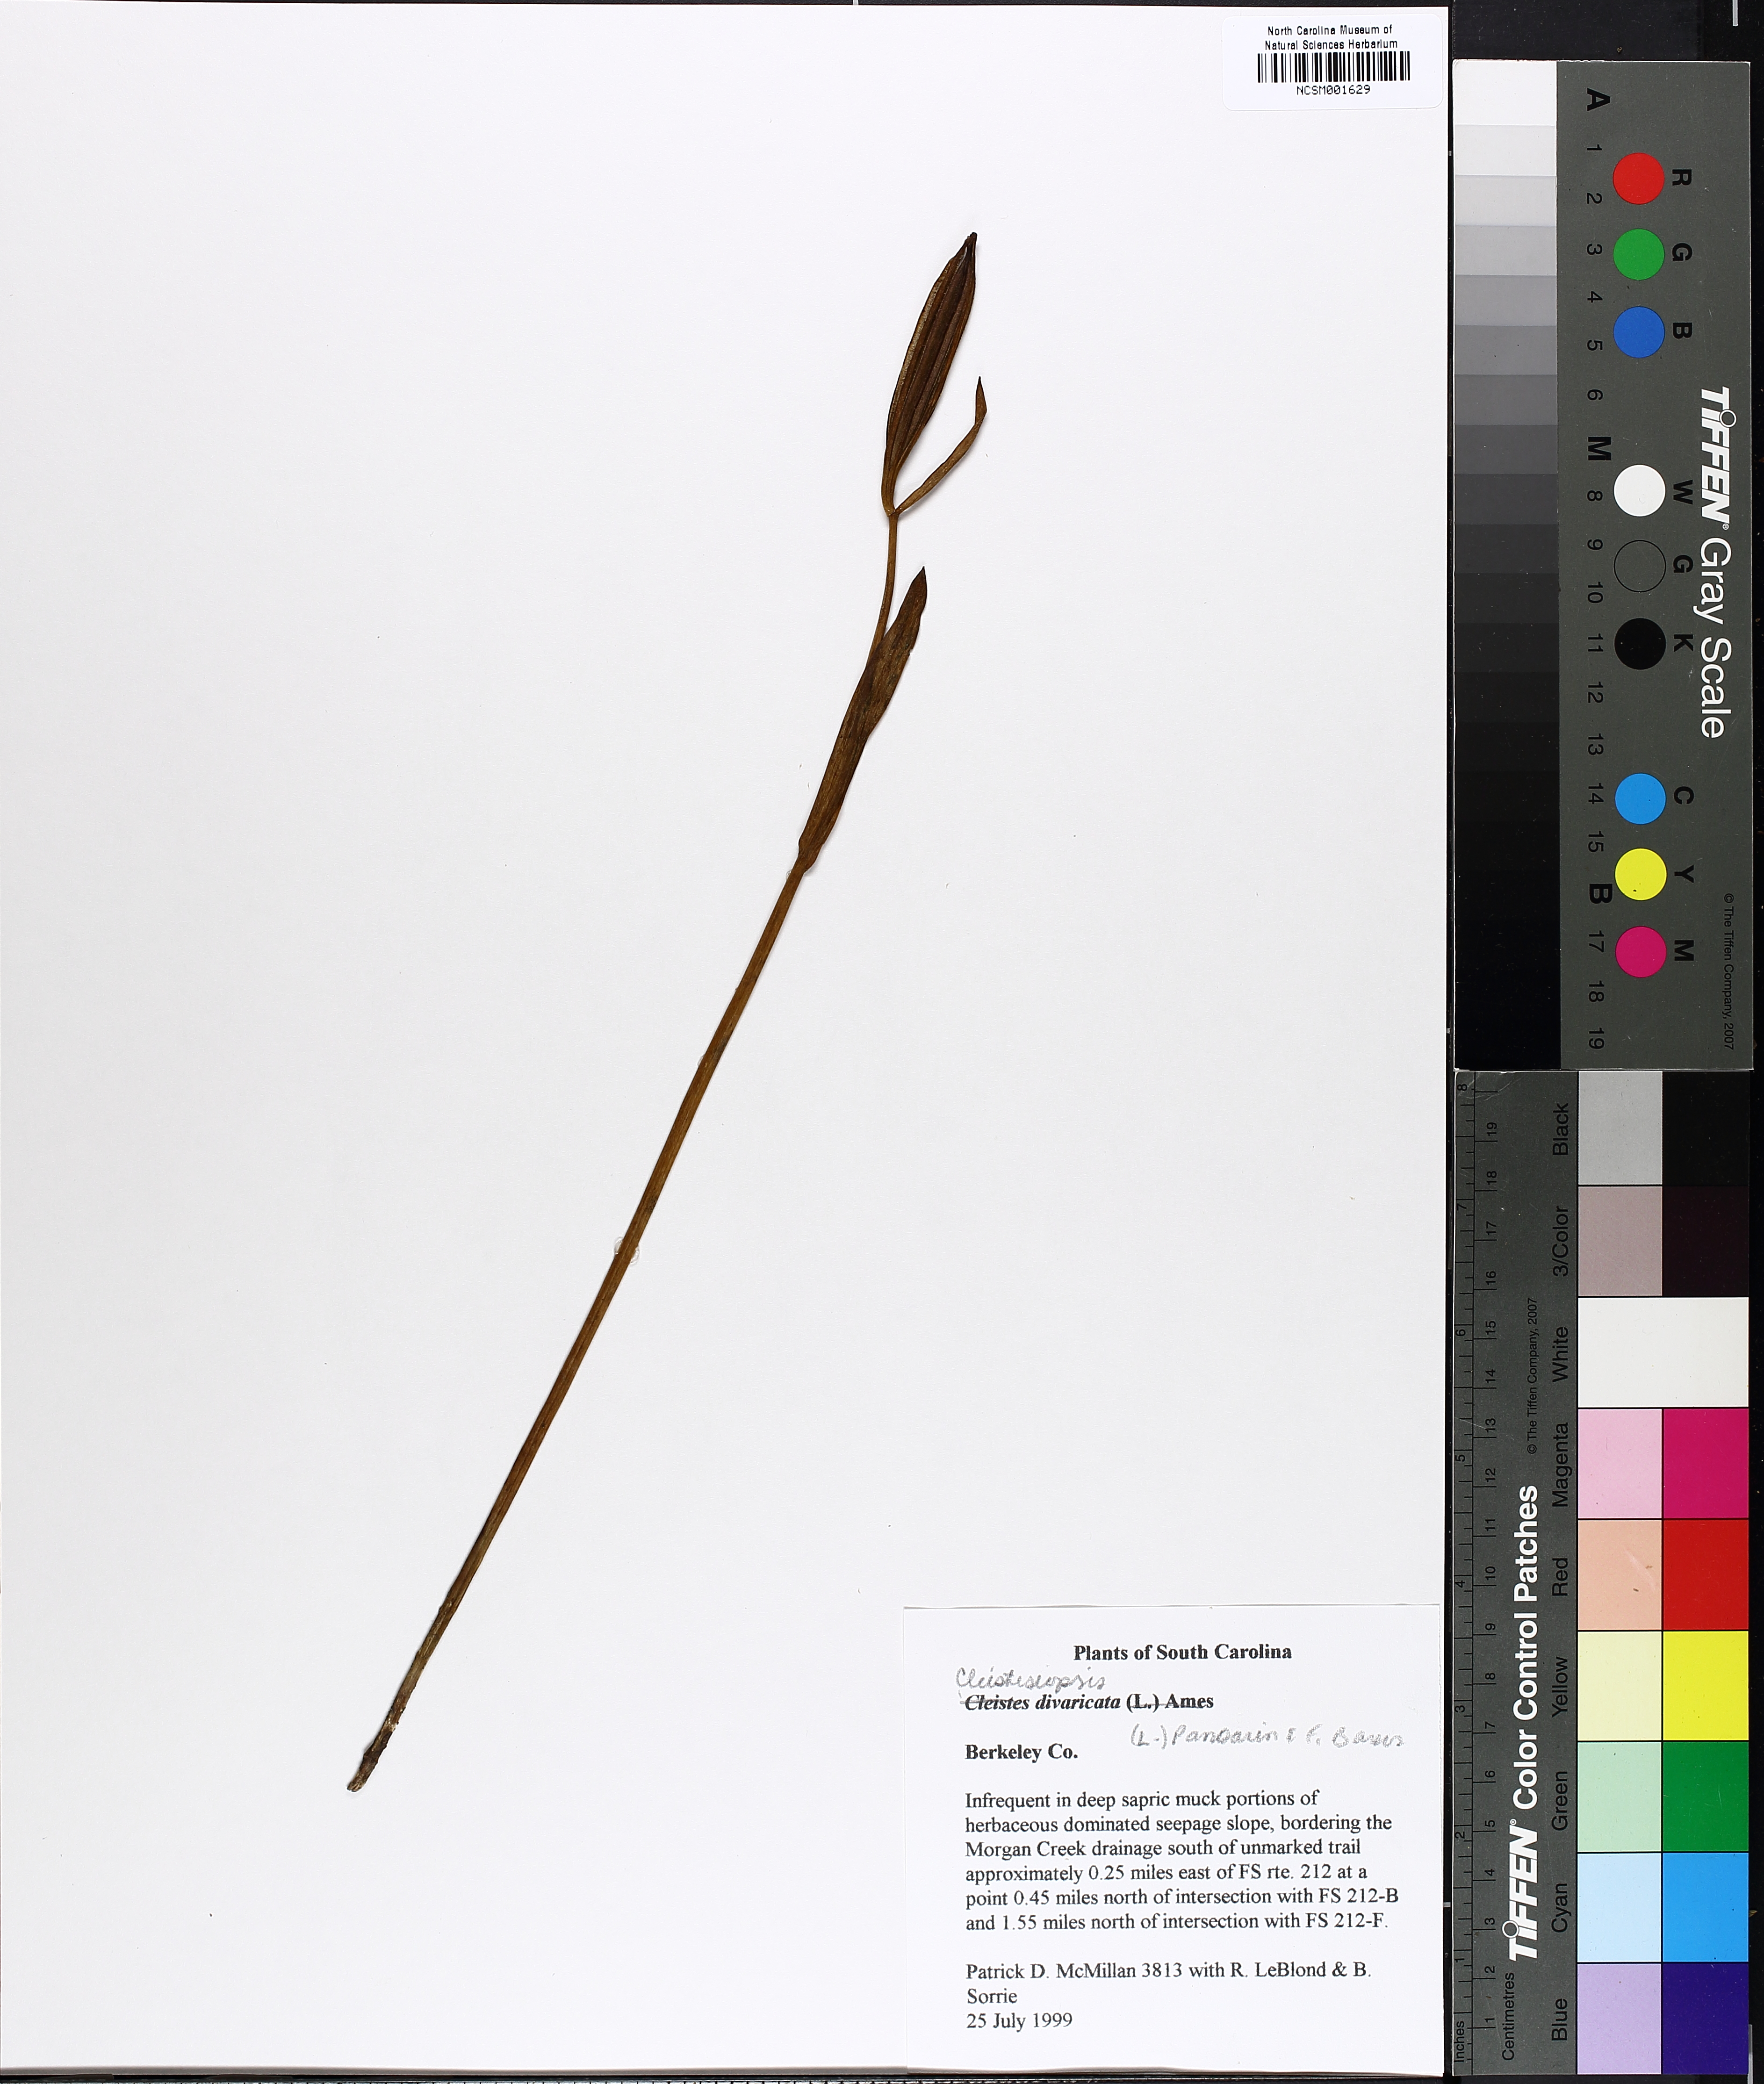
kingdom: Plantae
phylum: Tracheophyta
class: Liliopsida
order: Asparagales
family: Orchidaceae
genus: Cleistesiopsis
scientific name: Cleistesiopsis divaricata
